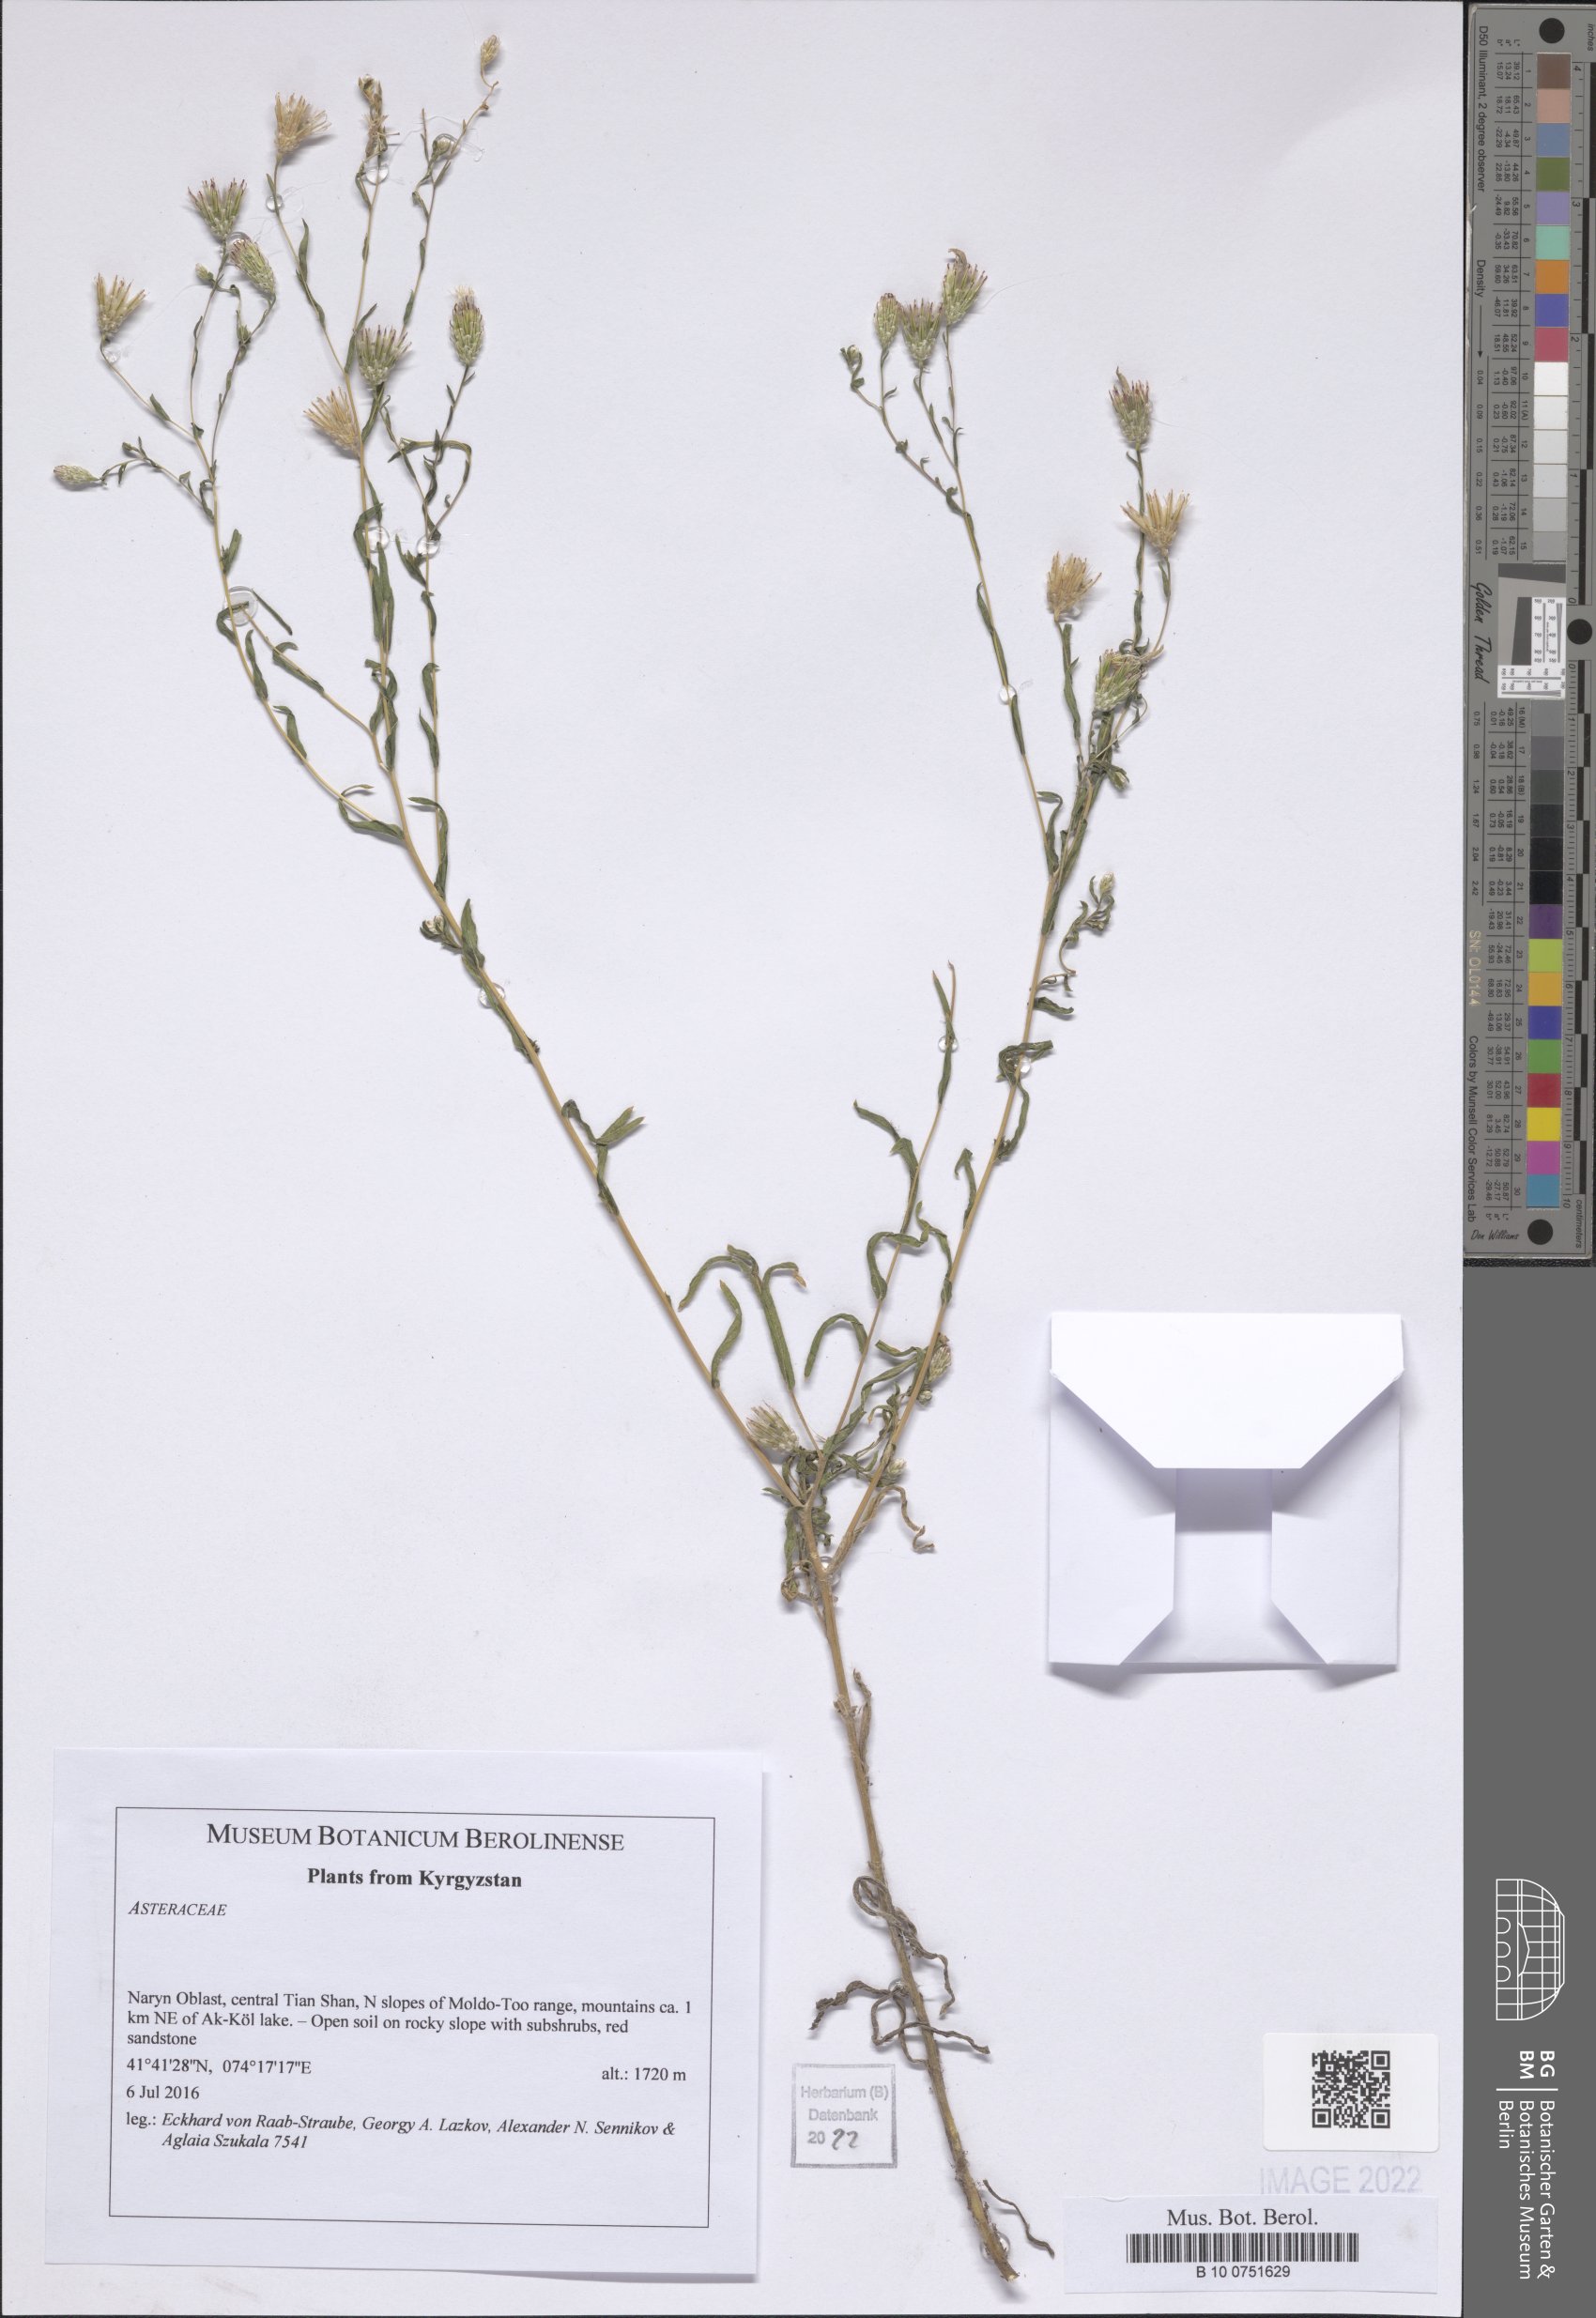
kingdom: Plantae
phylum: Tracheophyta
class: Magnoliopsida
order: Asterales
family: Asteraceae
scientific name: Asteraceae
